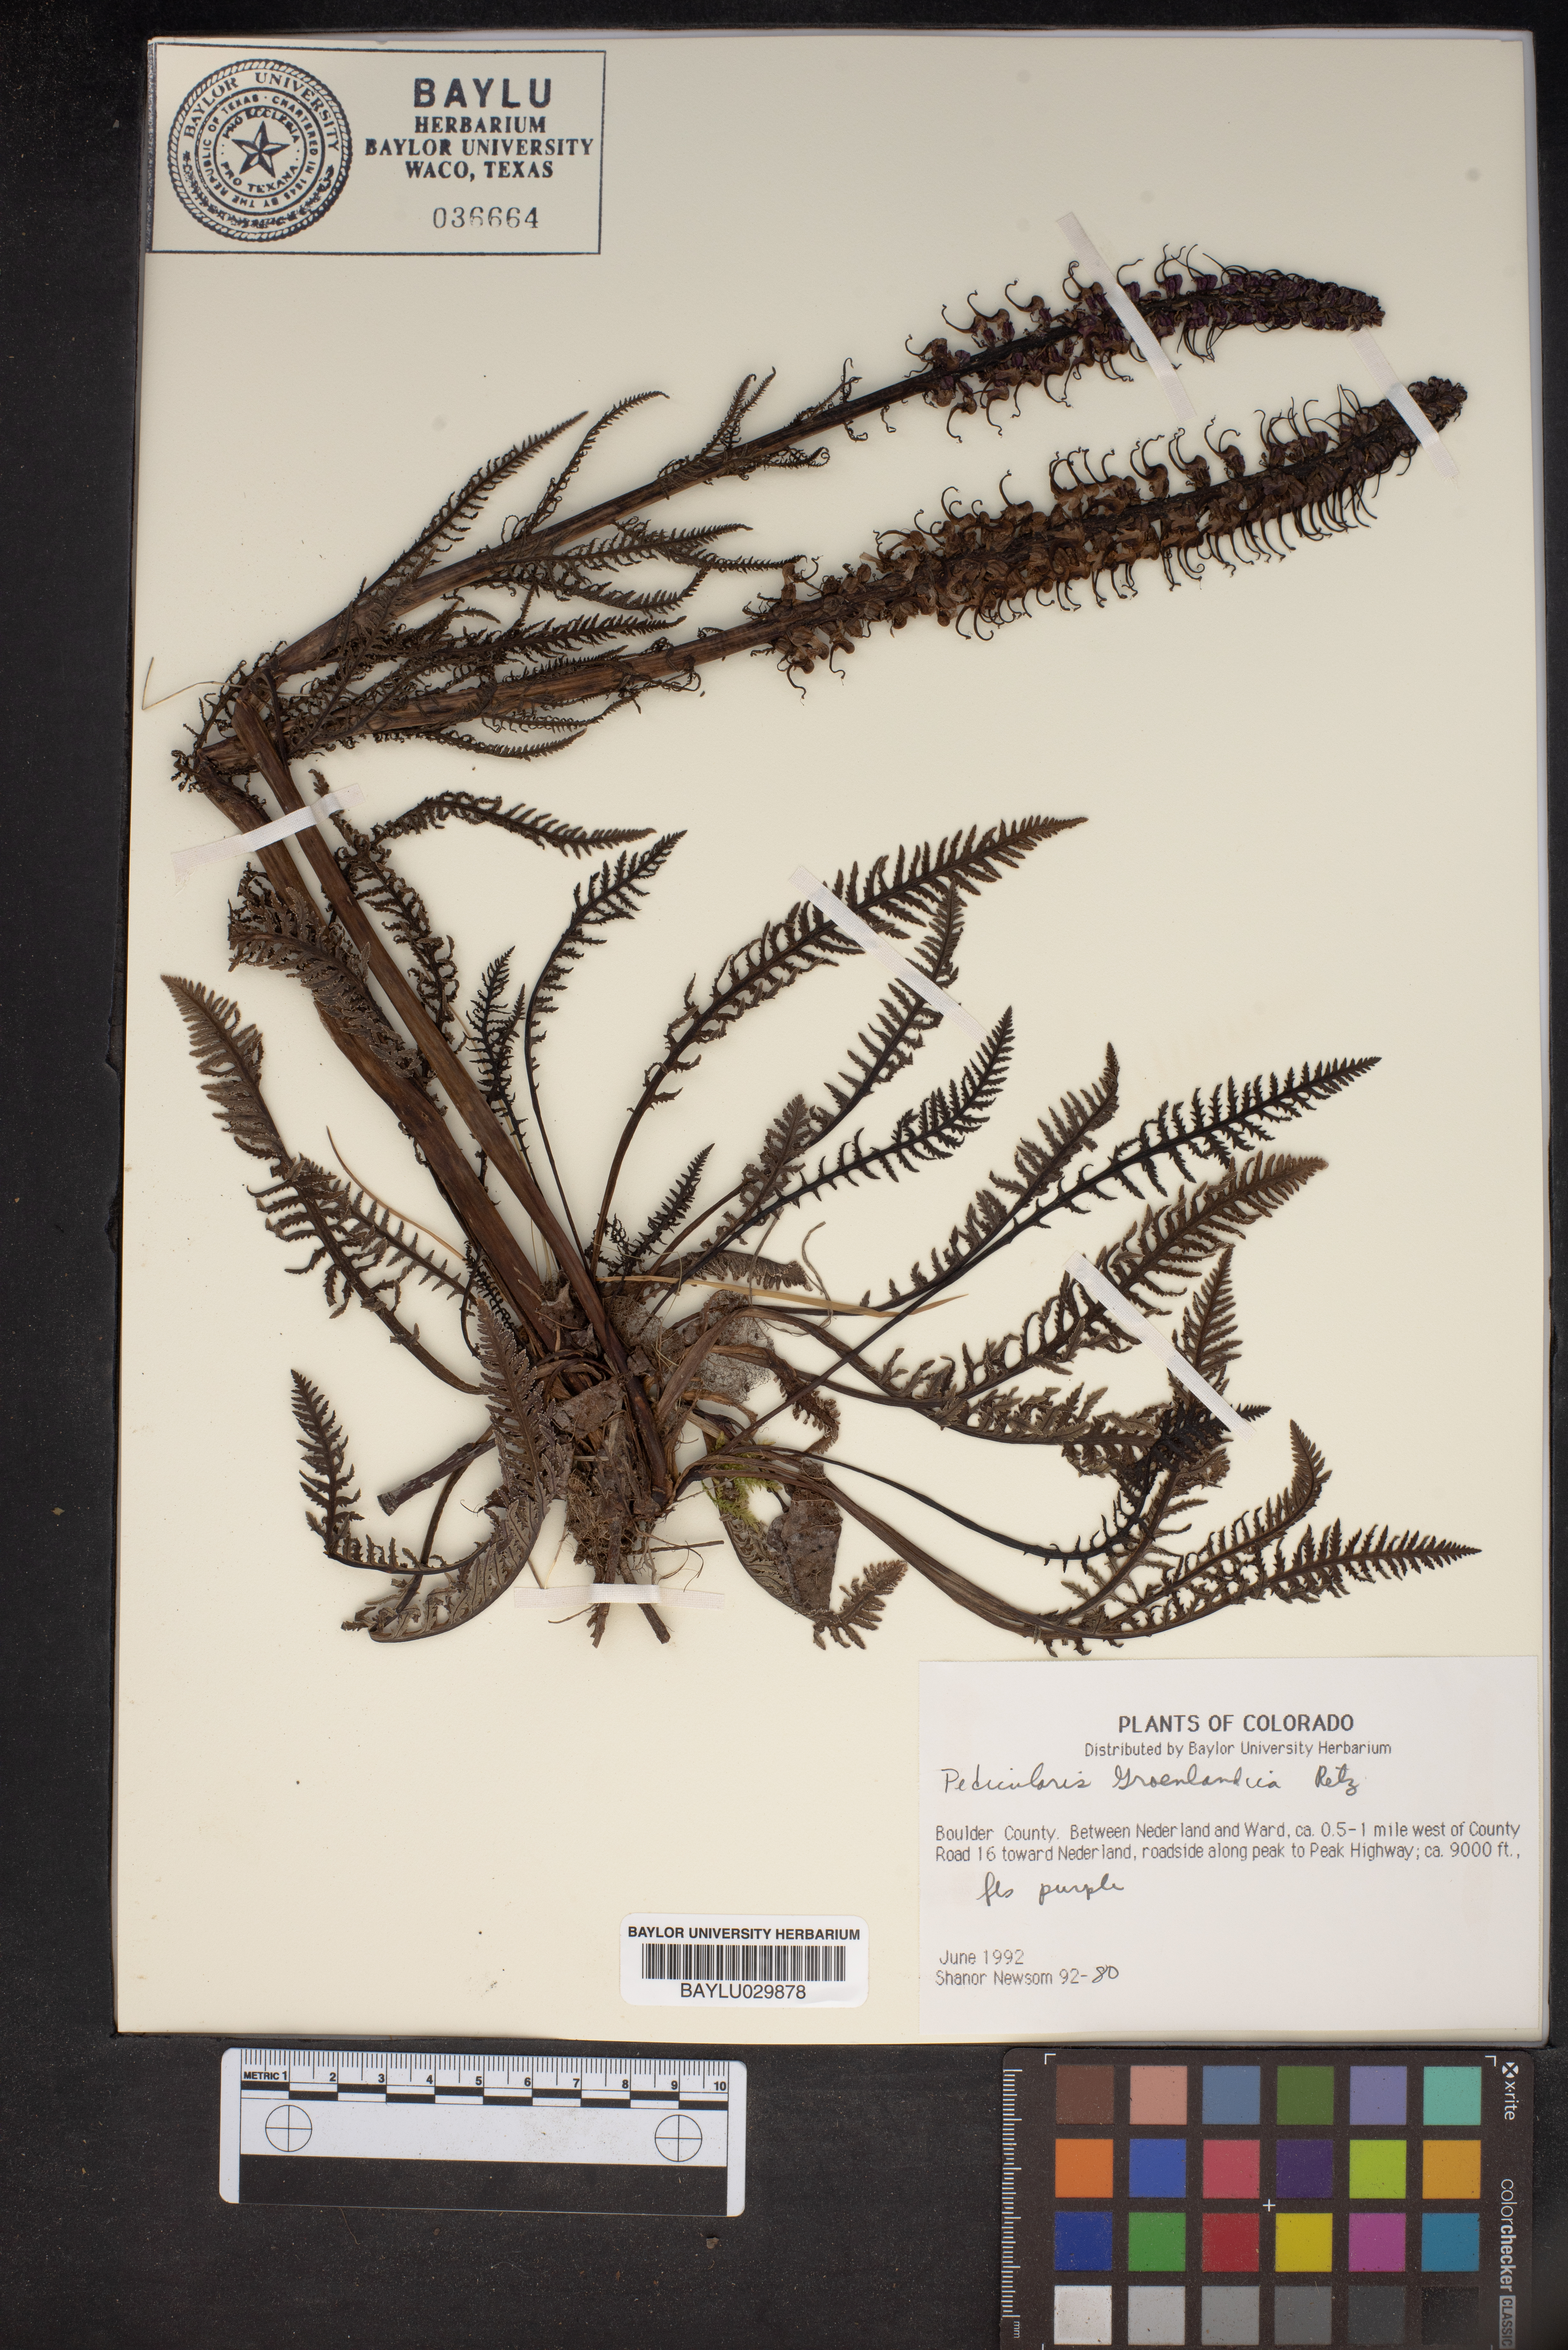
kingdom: Plantae
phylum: Tracheophyta
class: Magnoliopsida
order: Lamiales
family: Orobanchaceae
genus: Pedicularis
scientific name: Pedicularis groenlandica
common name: Elephant's-head
